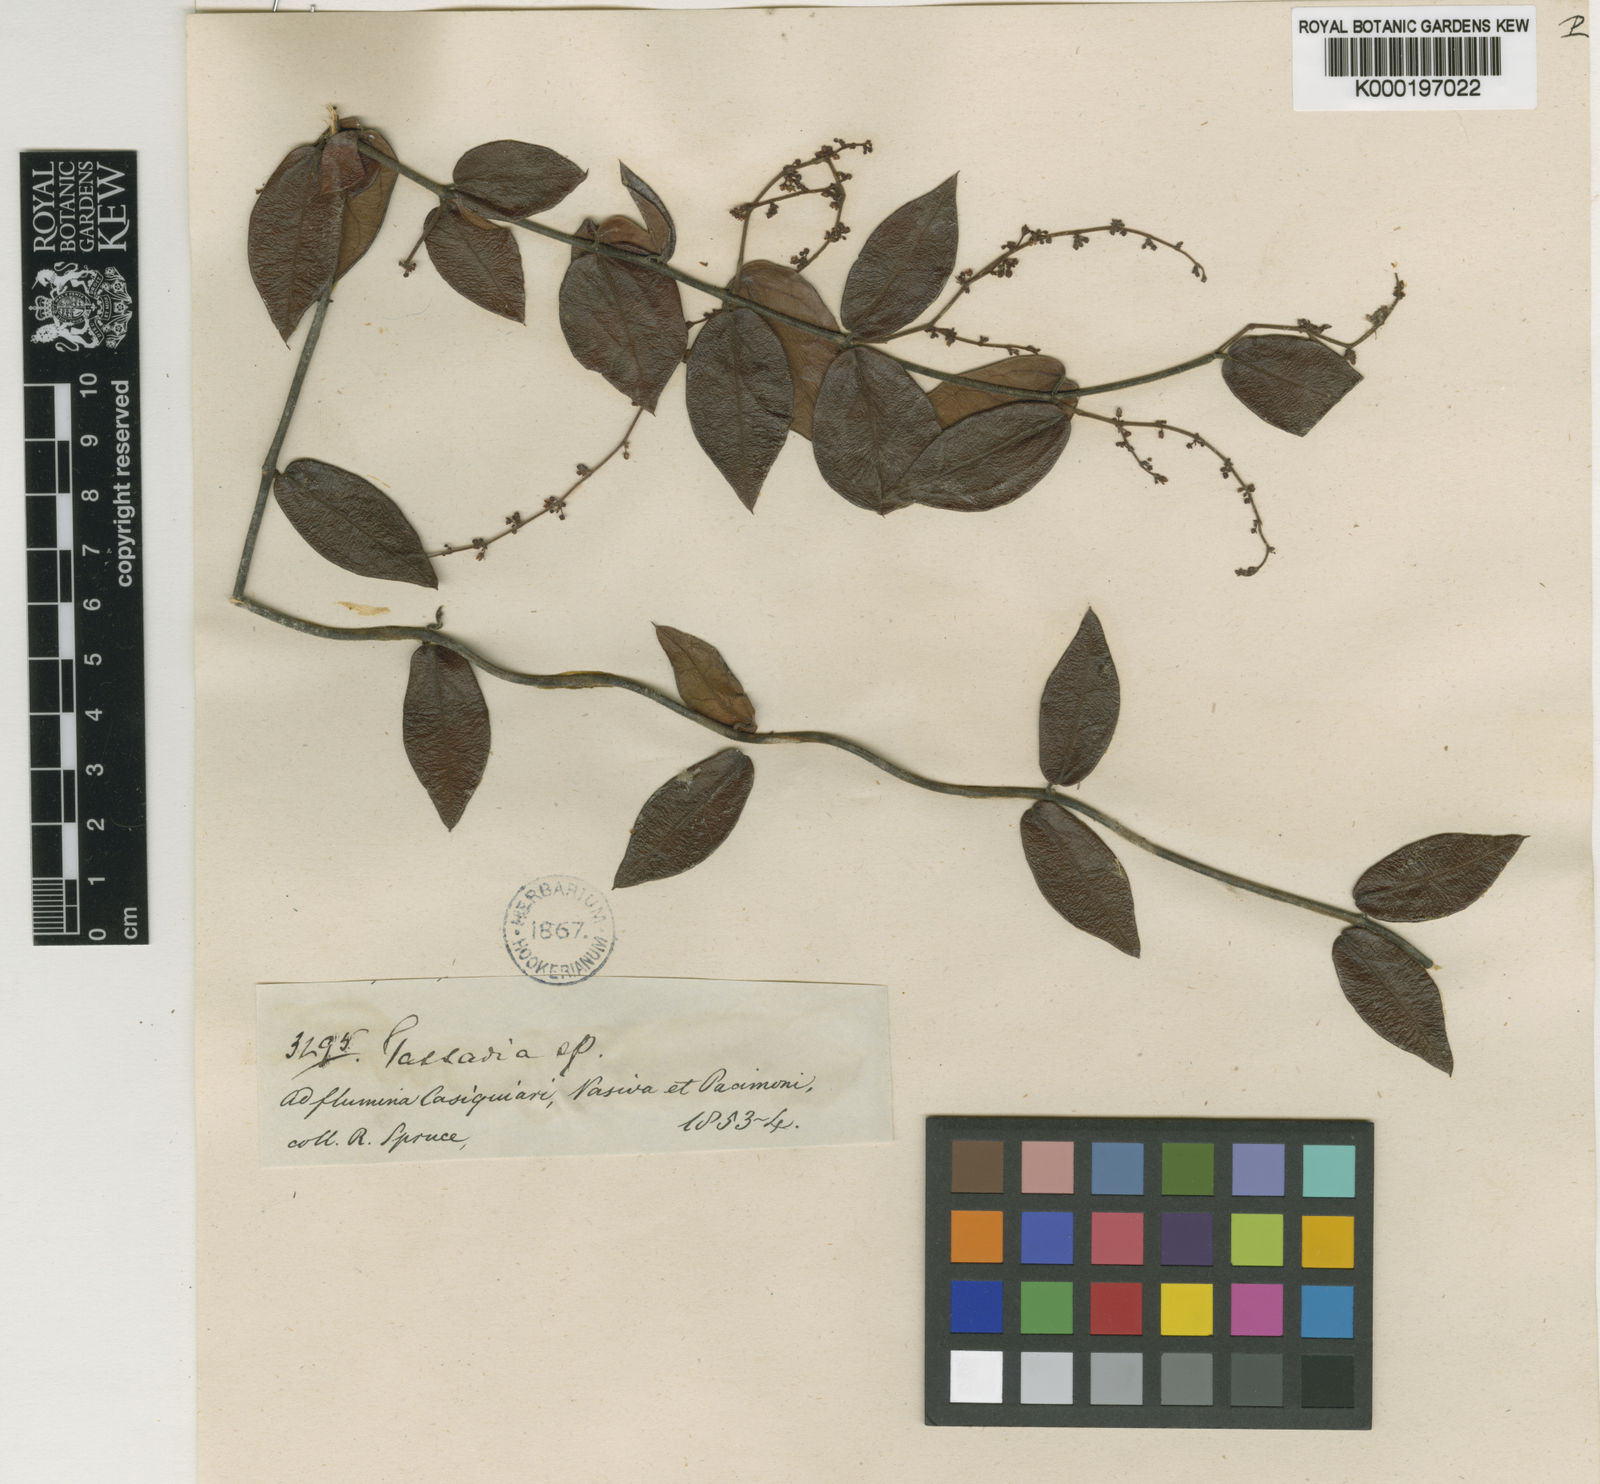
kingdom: Plantae
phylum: Tracheophyta
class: Magnoliopsida
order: Gentianales
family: Apocynaceae
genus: Tassadia
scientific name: Tassadia castellanosii
